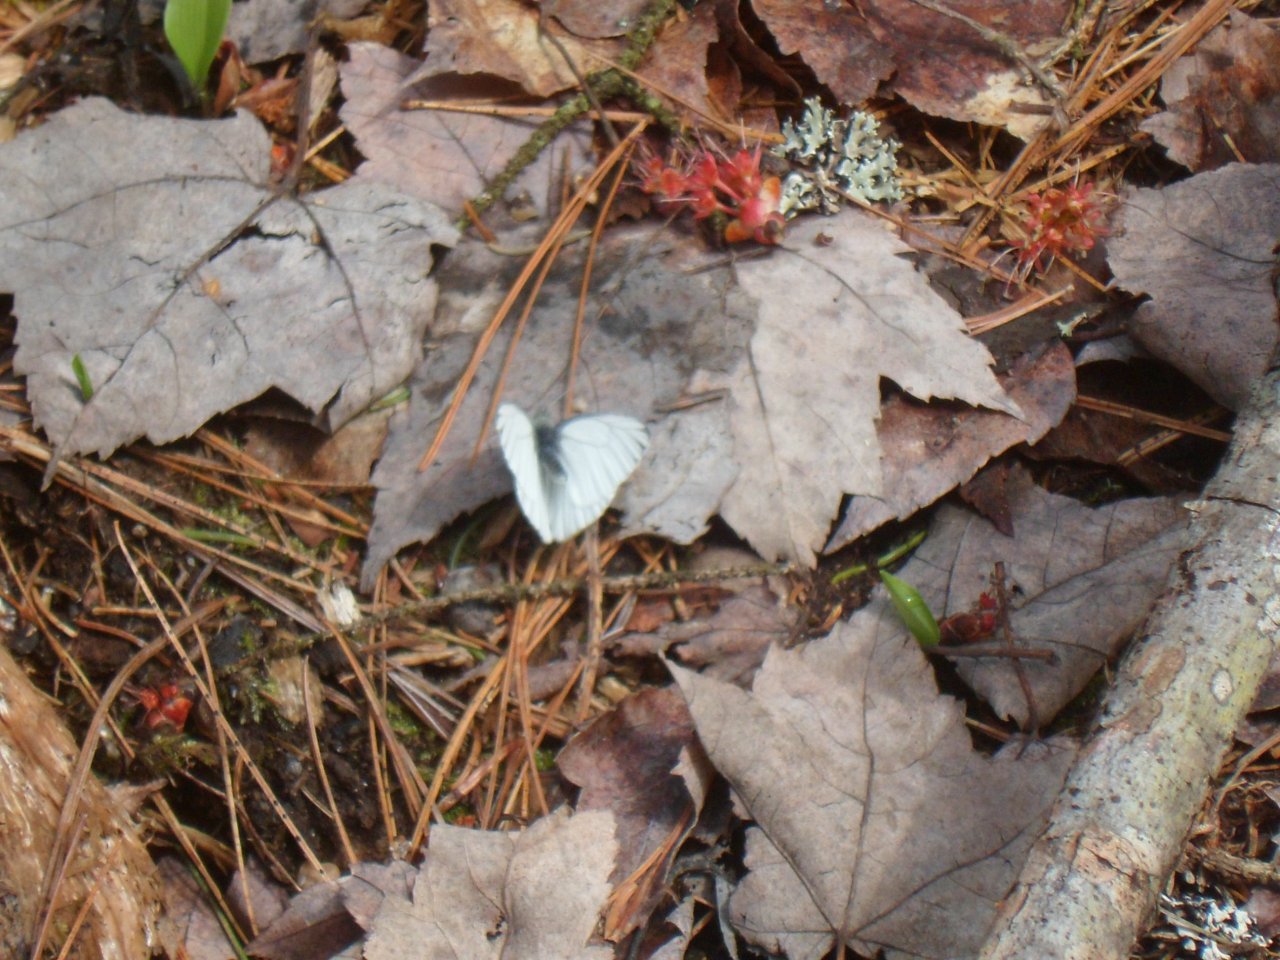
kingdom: Animalia
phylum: Arthropoda
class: Insecta
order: Lepidoptera
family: Pieridae
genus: Pieris
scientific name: Pieris oleracea
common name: Mustard White
